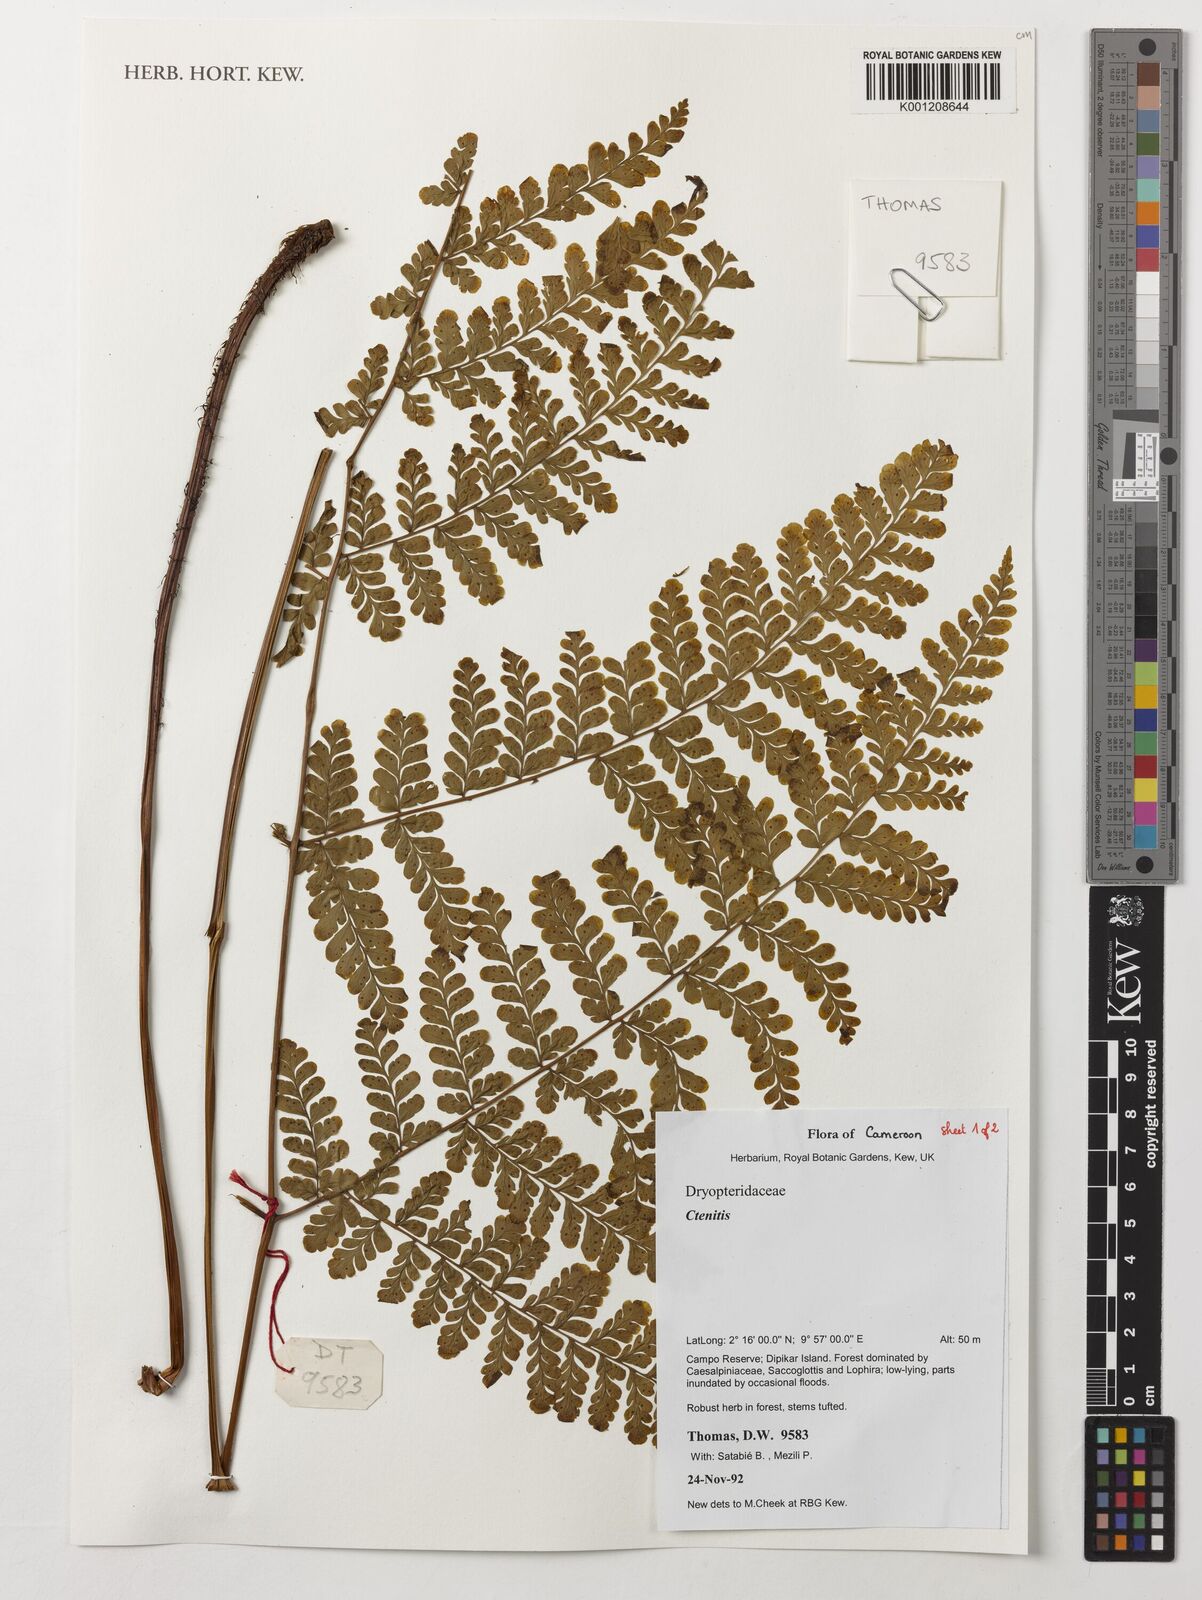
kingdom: Plantae
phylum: Tracheophyta
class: Polypodiopsida
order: Polypodiales
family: Dryopteridaceae
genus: Ctenitis
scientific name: Ctenitis
